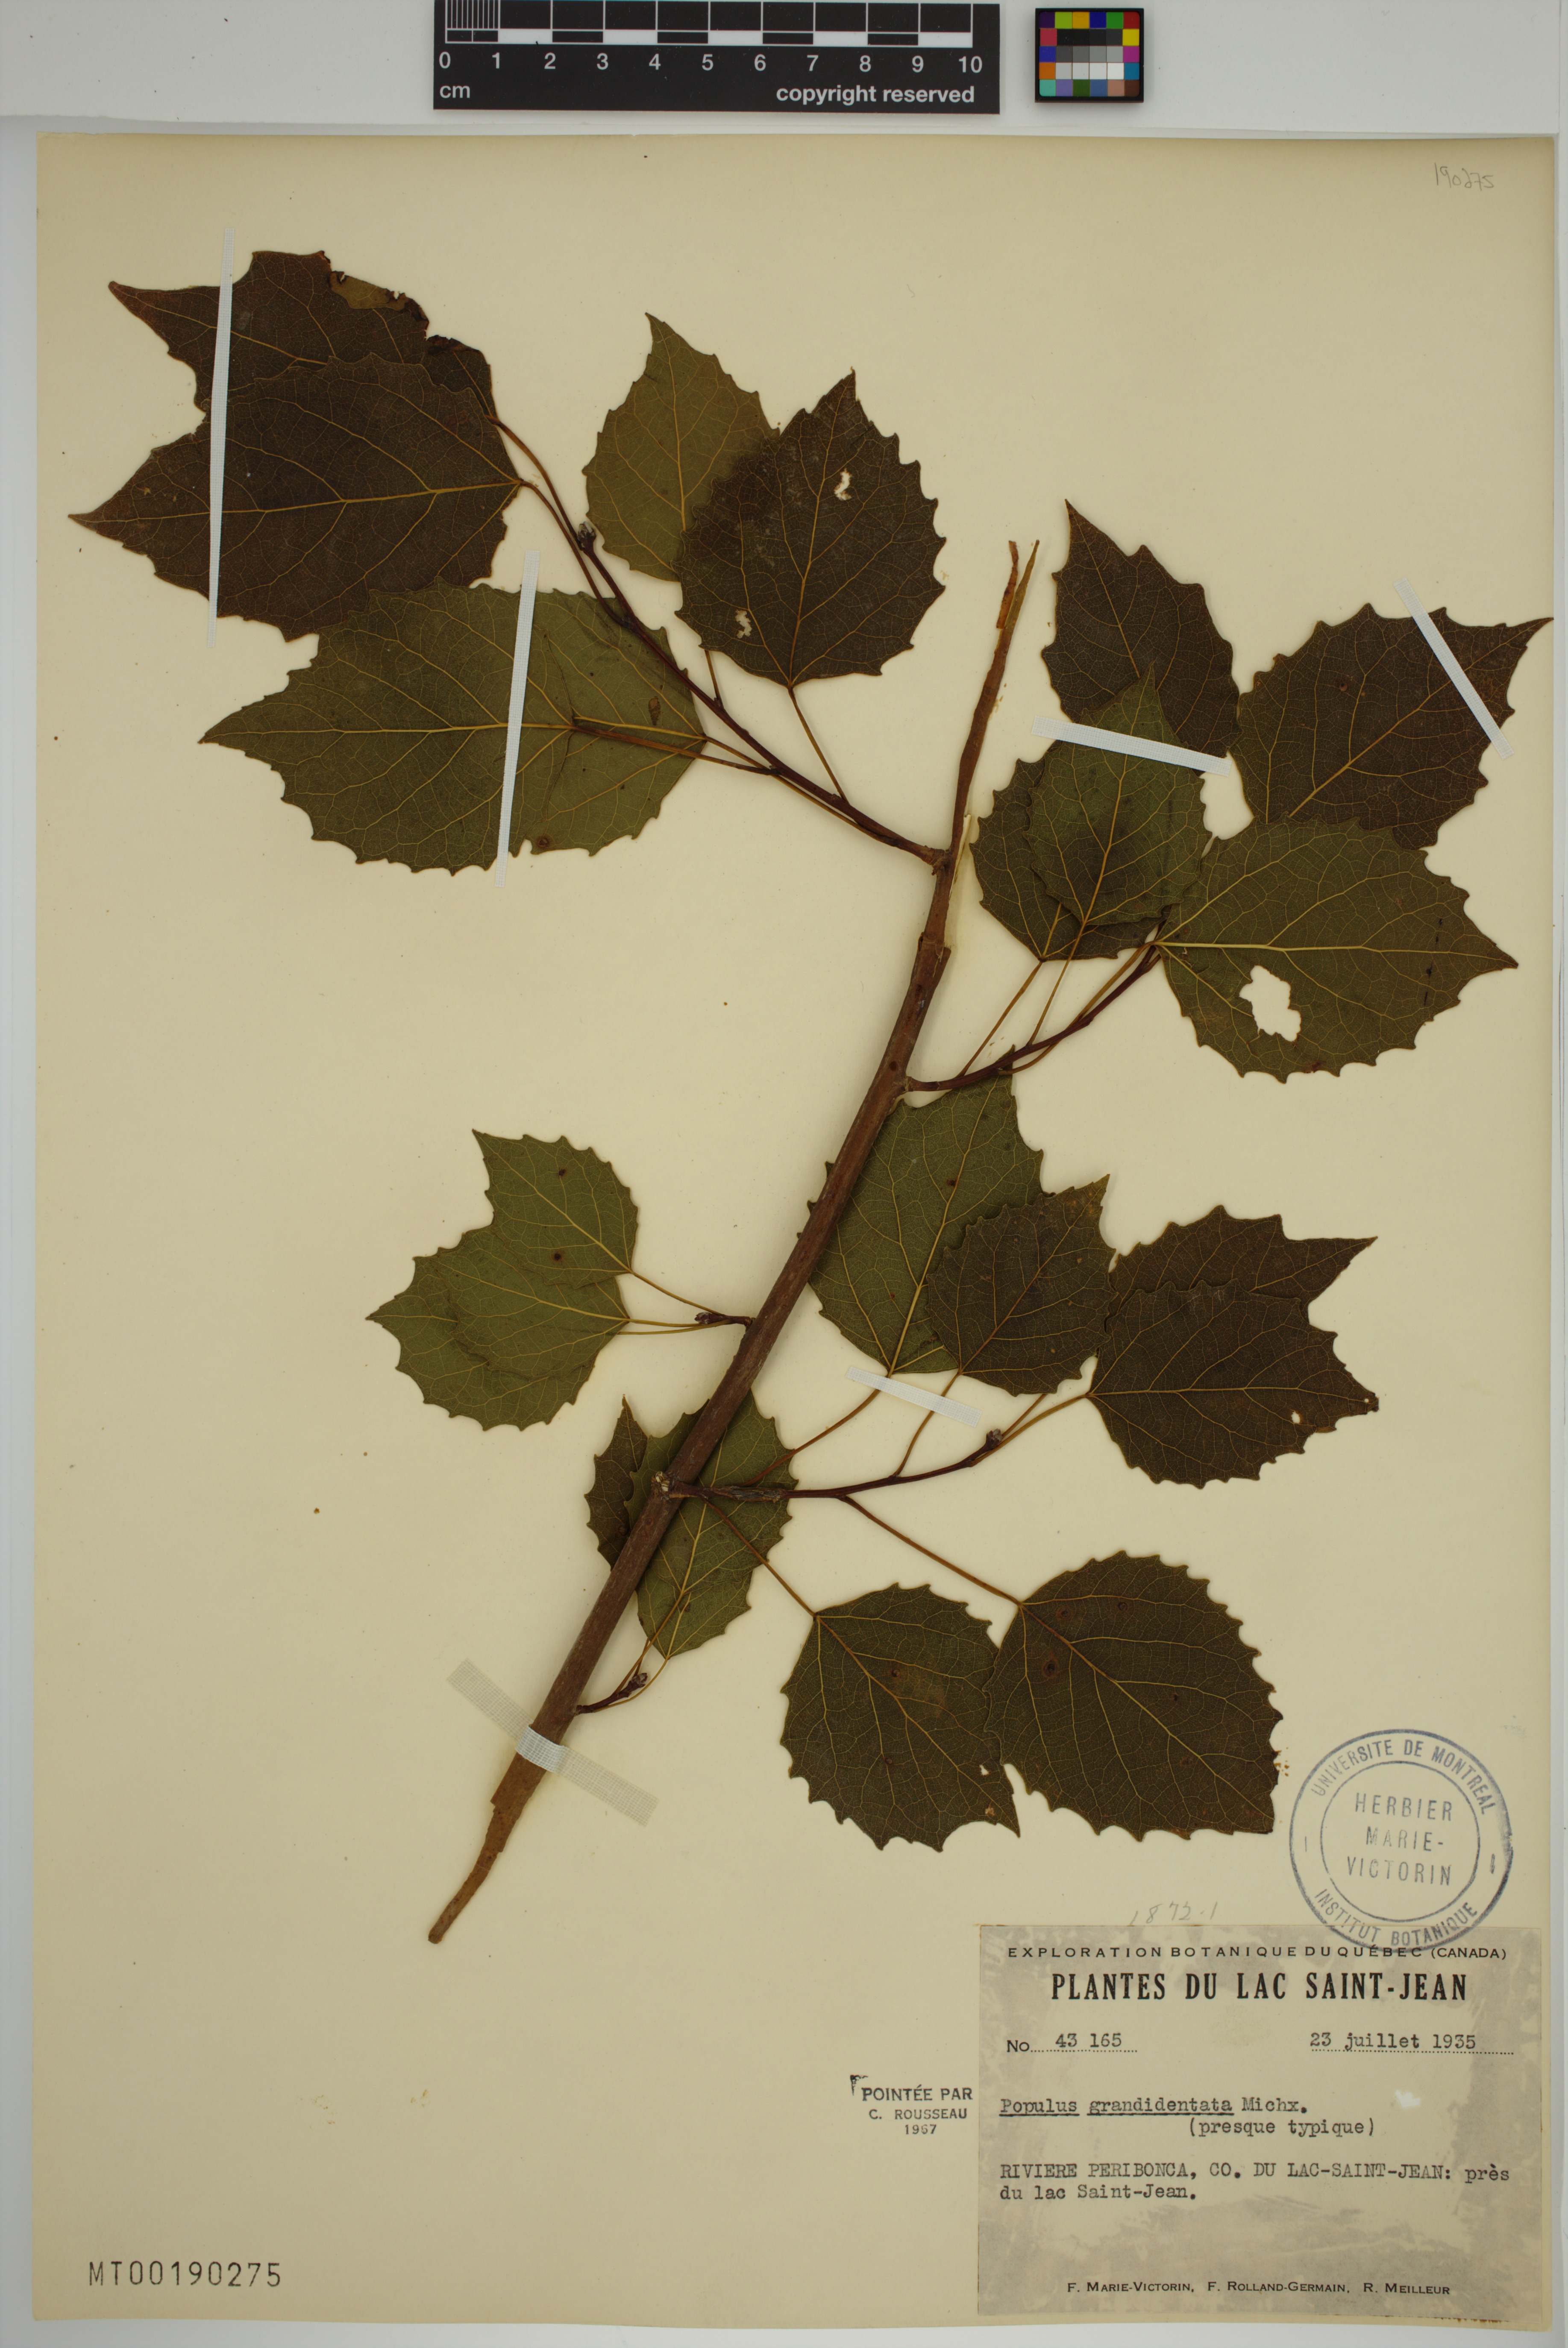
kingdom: Plantae
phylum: Tracheophyta
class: Magnoliopsida
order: Malpighiales
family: Salicaceae
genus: Populus
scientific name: Populus grandidentata
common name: Bigtooth aspen
